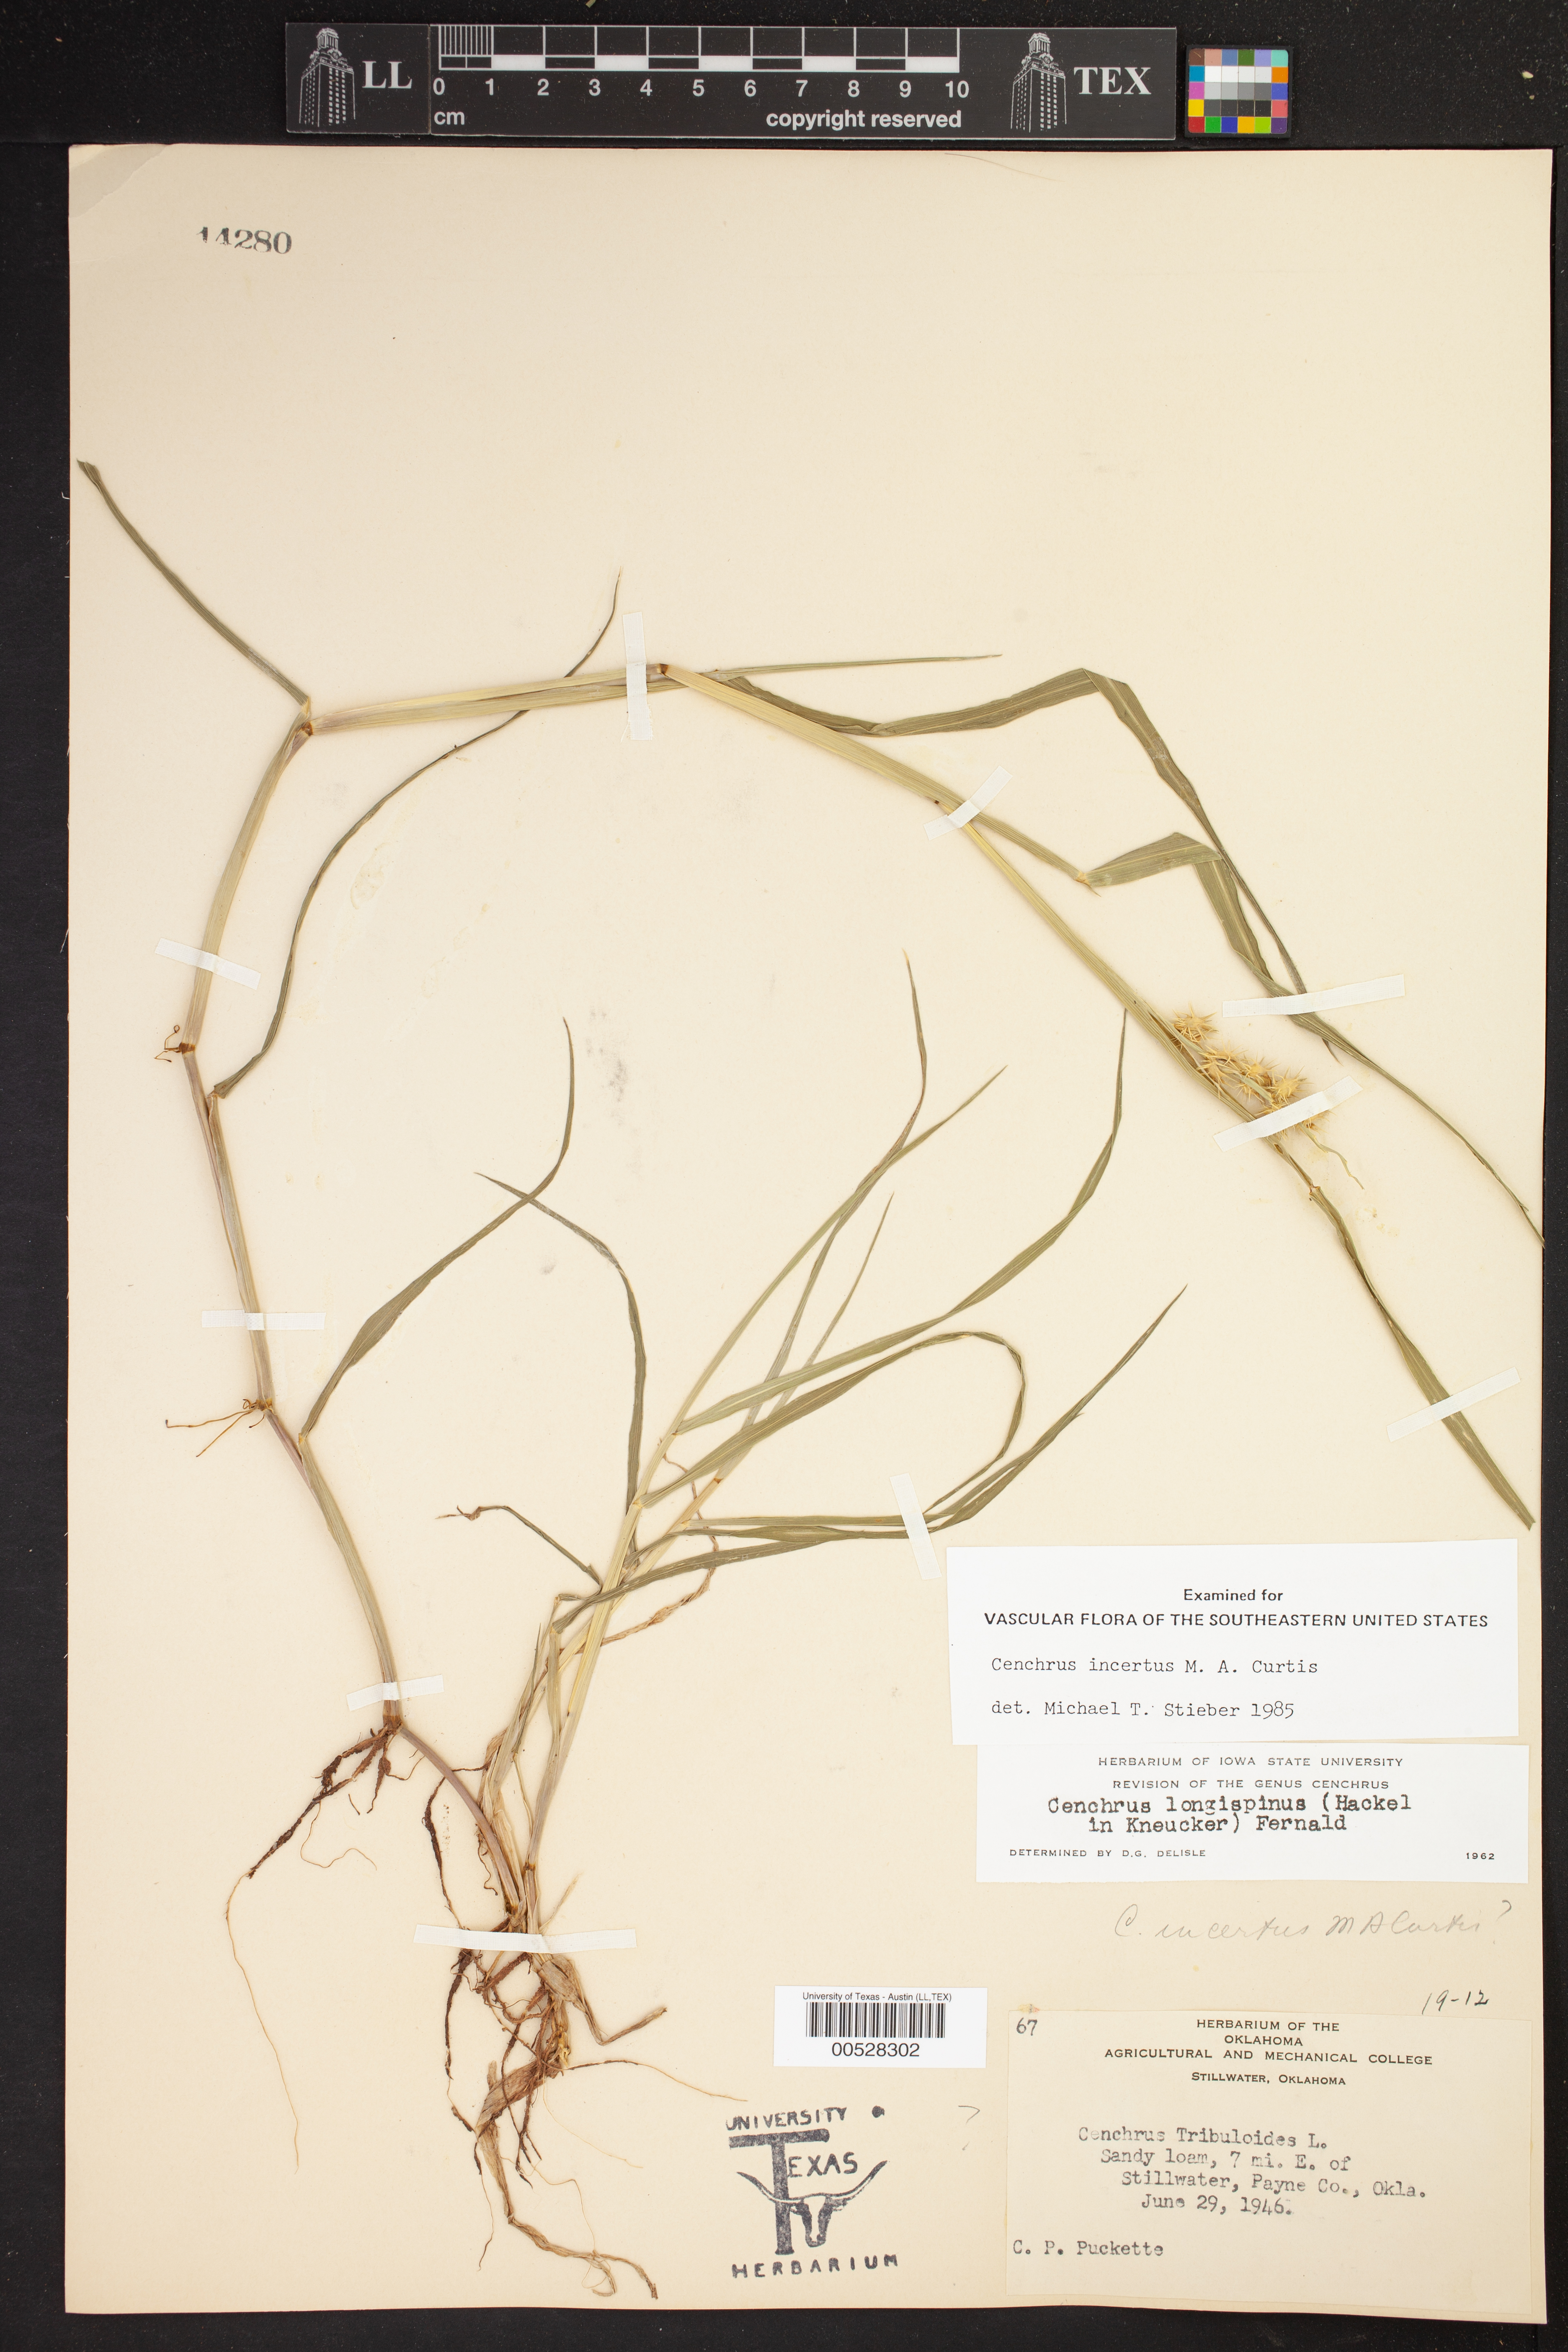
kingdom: Plantae
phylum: Tracheophyta
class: Liliopsida
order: Poales
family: Poaceae
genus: Cenchrus
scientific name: Cenchrus spinifex
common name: Coast sandbur
